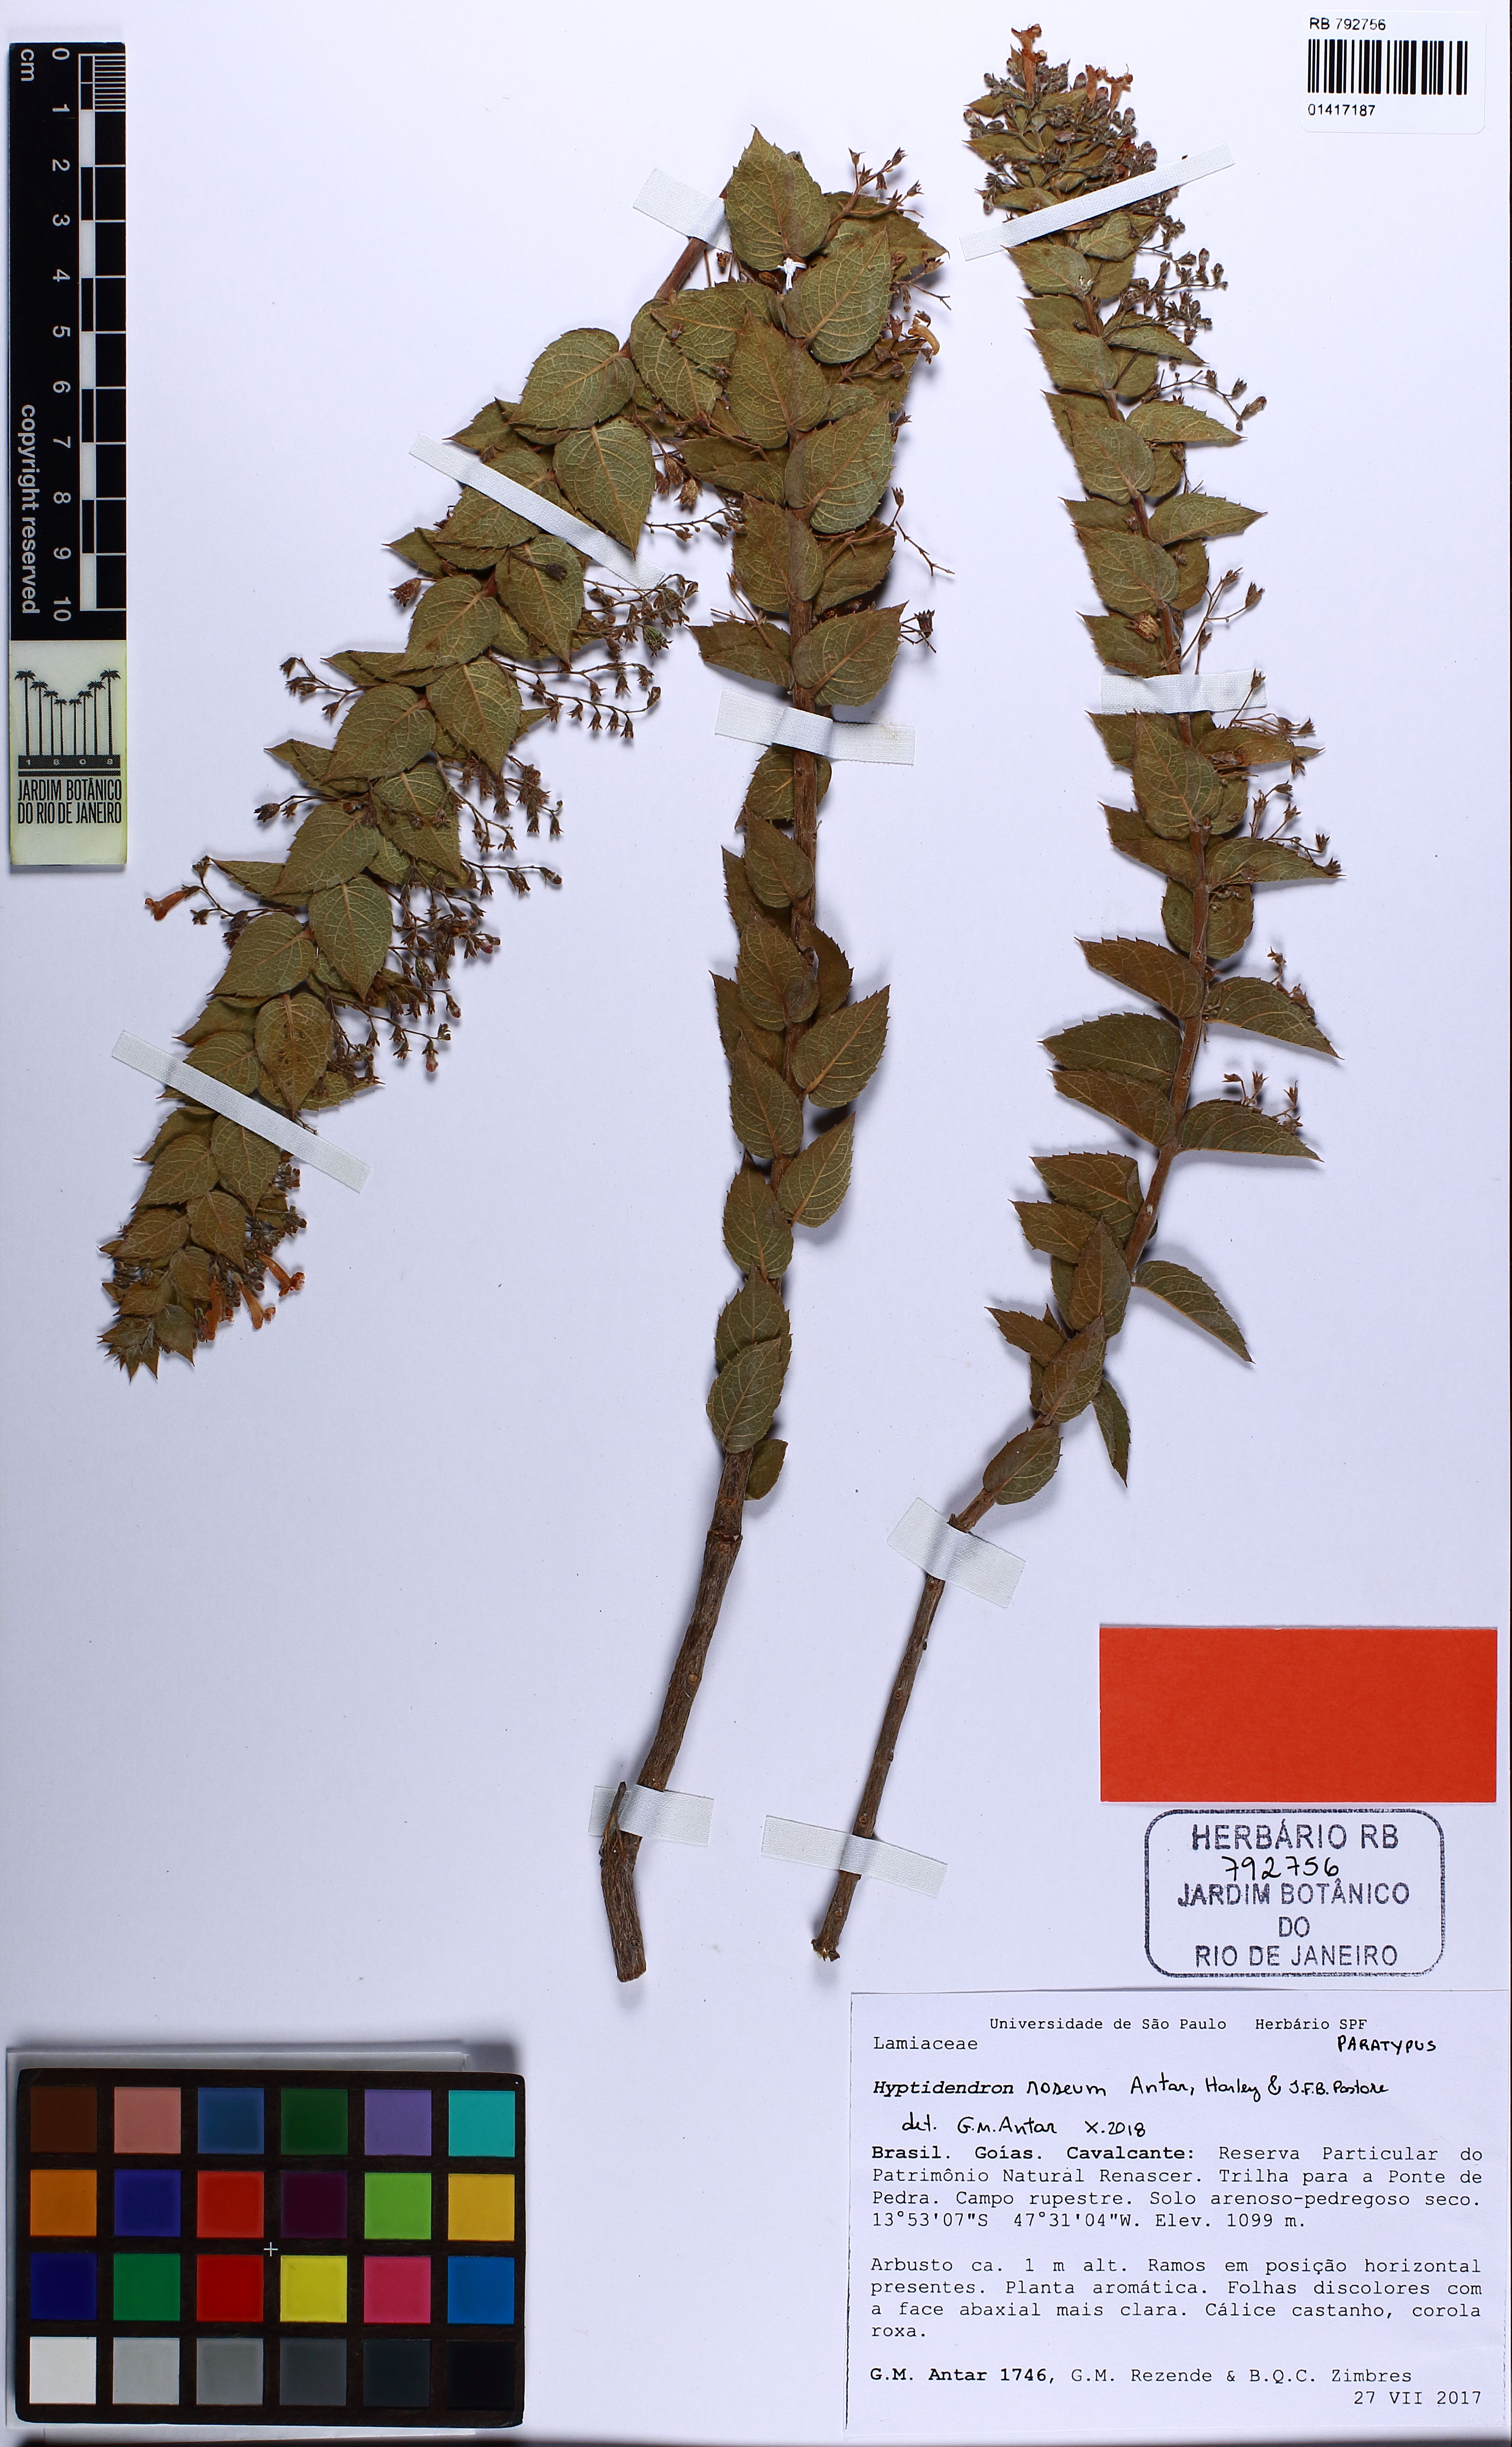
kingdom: Plantae
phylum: Tracheophyta
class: Magnoliopsida
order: Lamiales
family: Lamiaceae
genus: Hyptidendron
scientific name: Hyptidendron roseum
